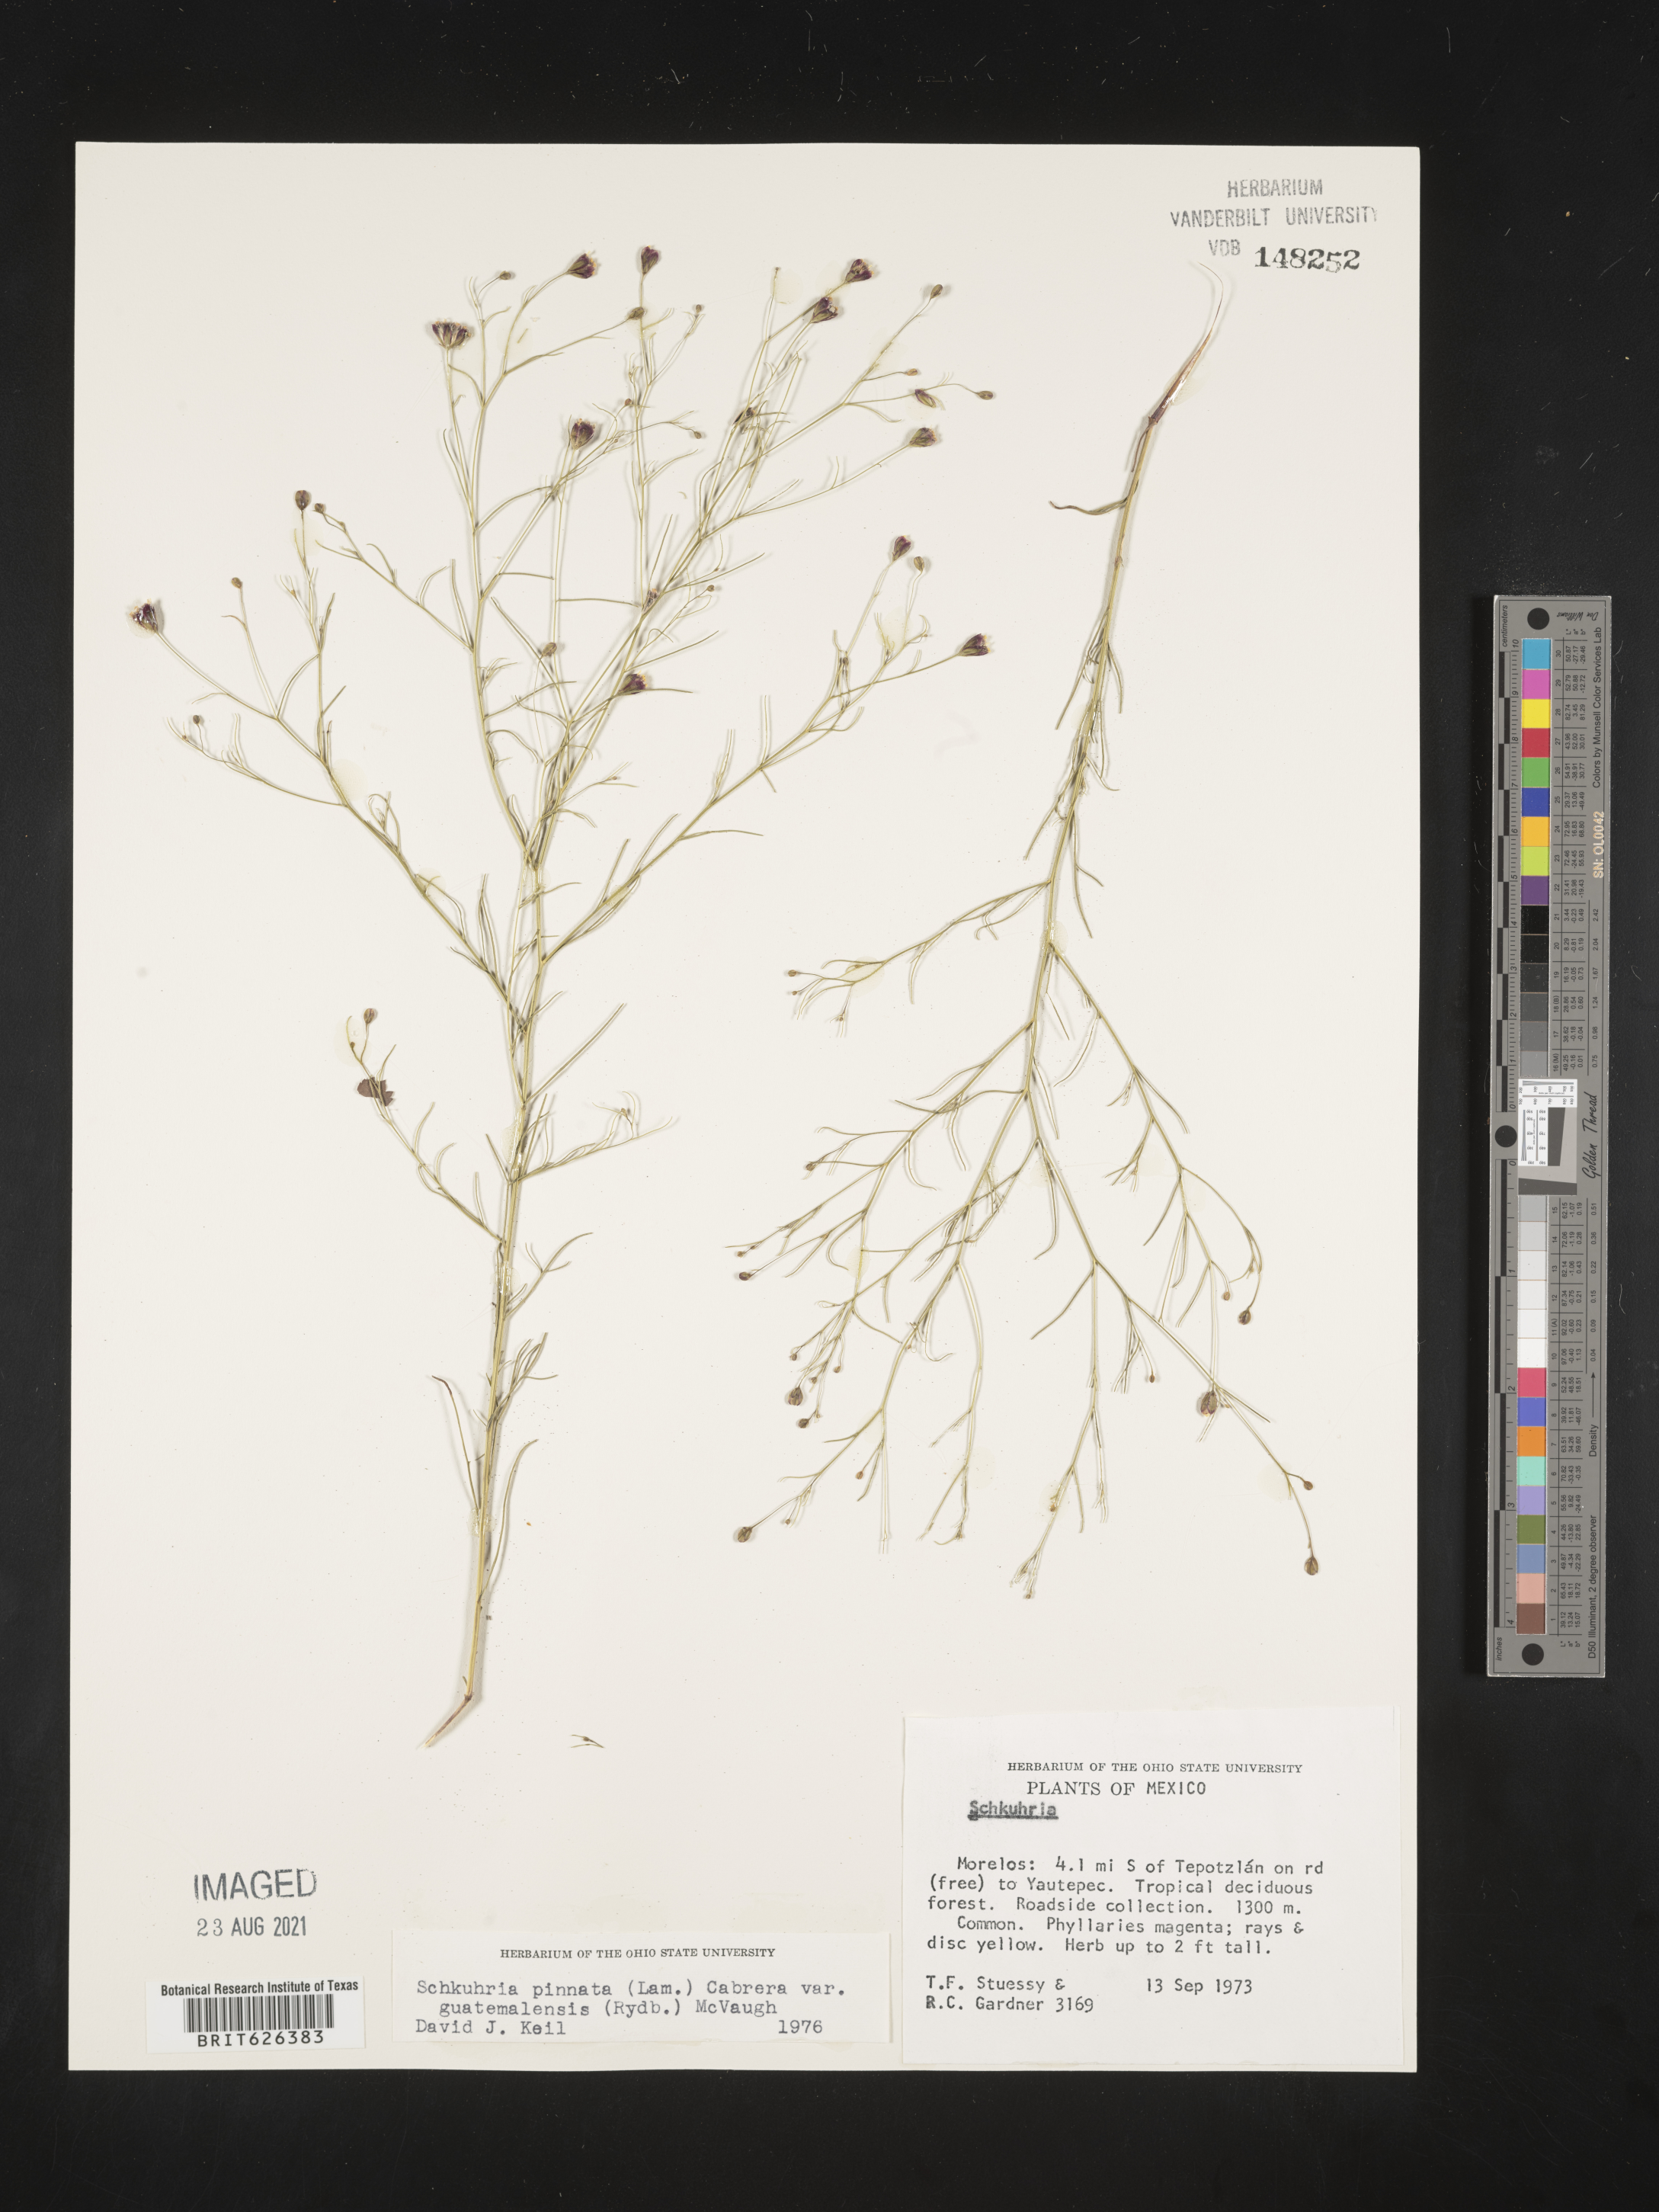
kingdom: Plantae
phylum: Tracheophyta
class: Magnoliopsida
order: Asterales
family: Asteraceae
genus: Schkuhria
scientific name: Schkuhria
